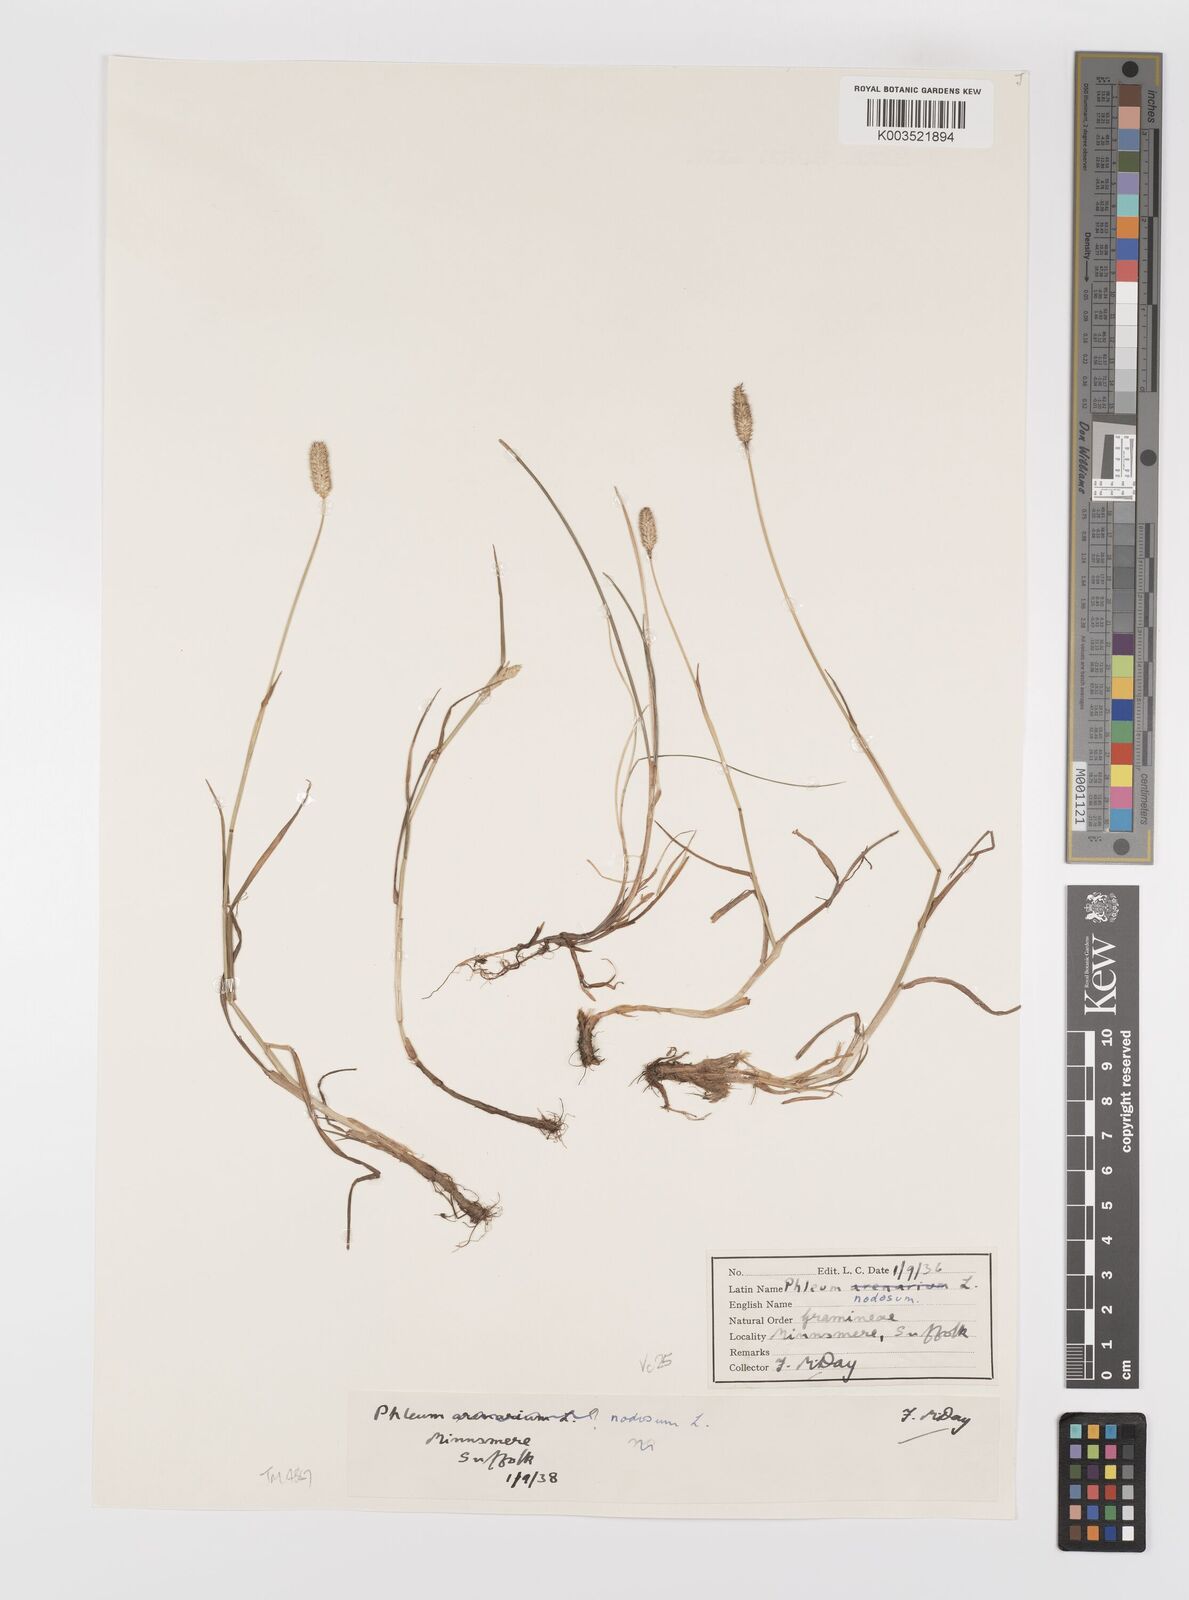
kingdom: Plantae
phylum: Tracheophyta
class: Liliopsida
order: Poales
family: Poaceae
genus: Phleum
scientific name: Phleum bertolonii
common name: Smaller cat's-tail
